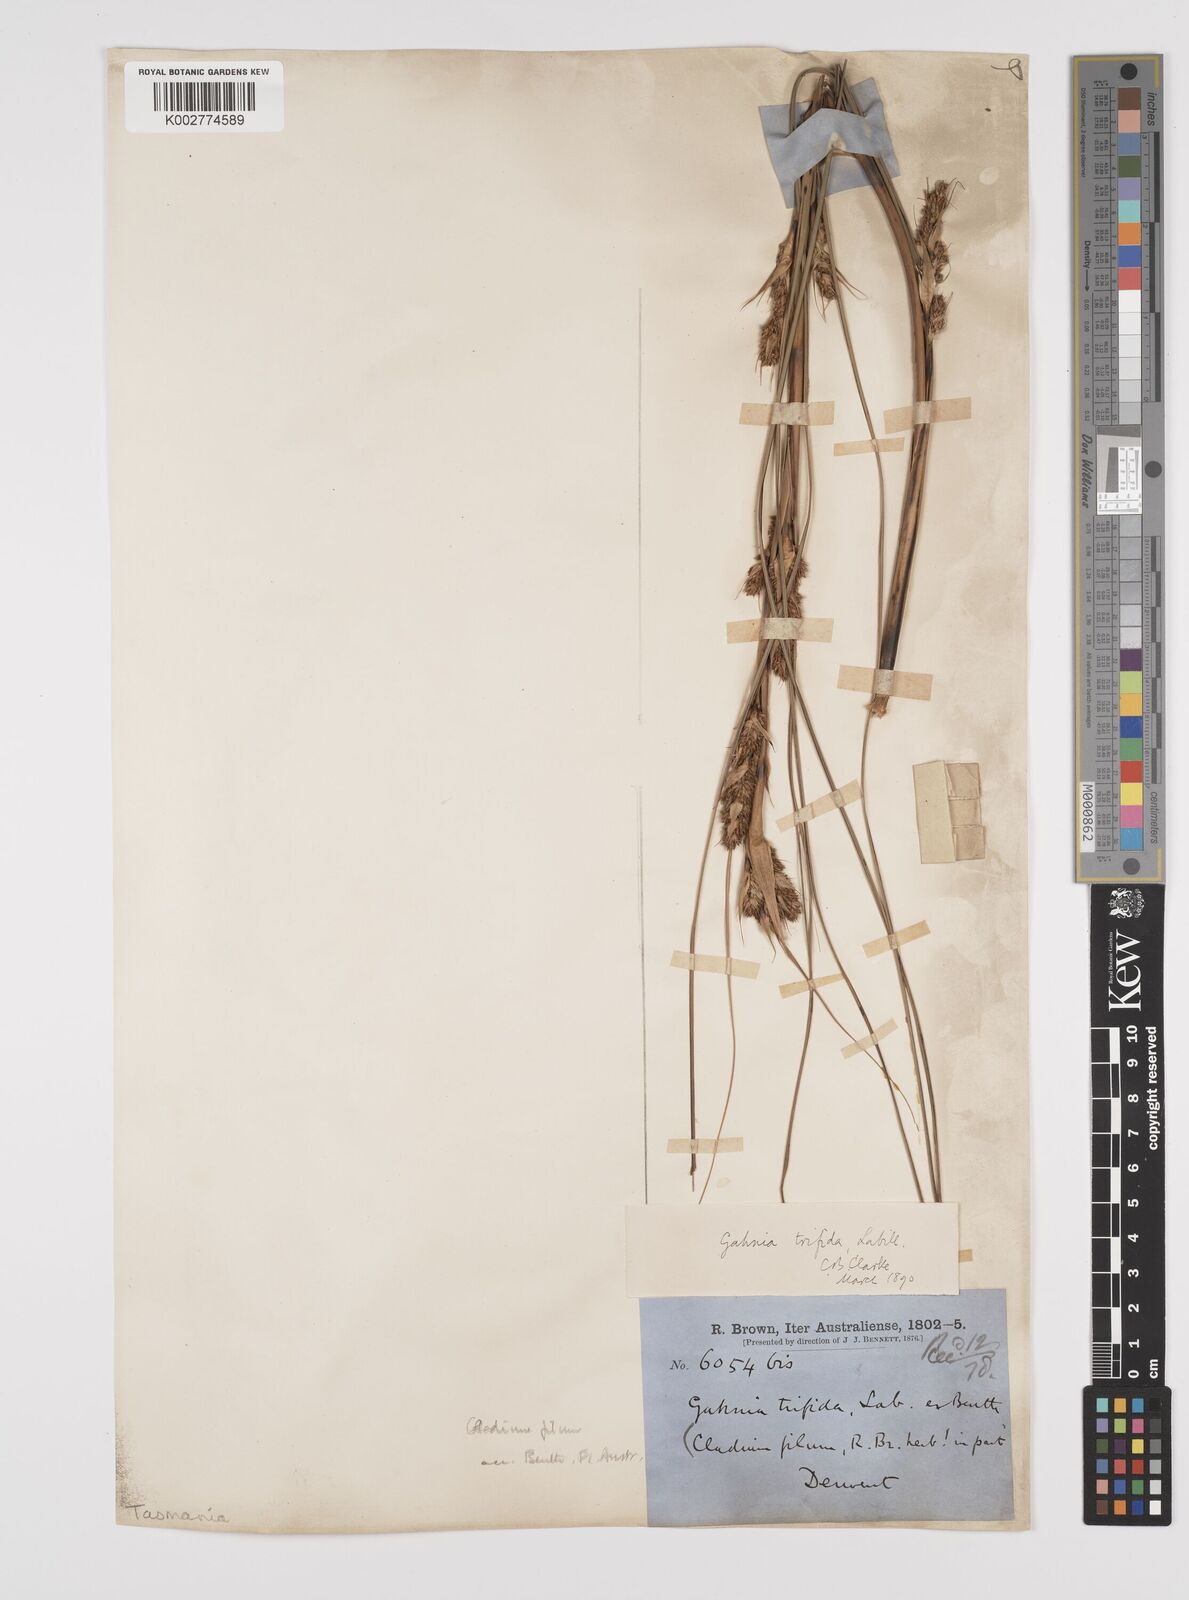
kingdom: Plantae
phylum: Tracheophyta
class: Liliopsida
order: Poales
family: Cyperaceae
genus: Gahnia
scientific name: Gahnia trifida
